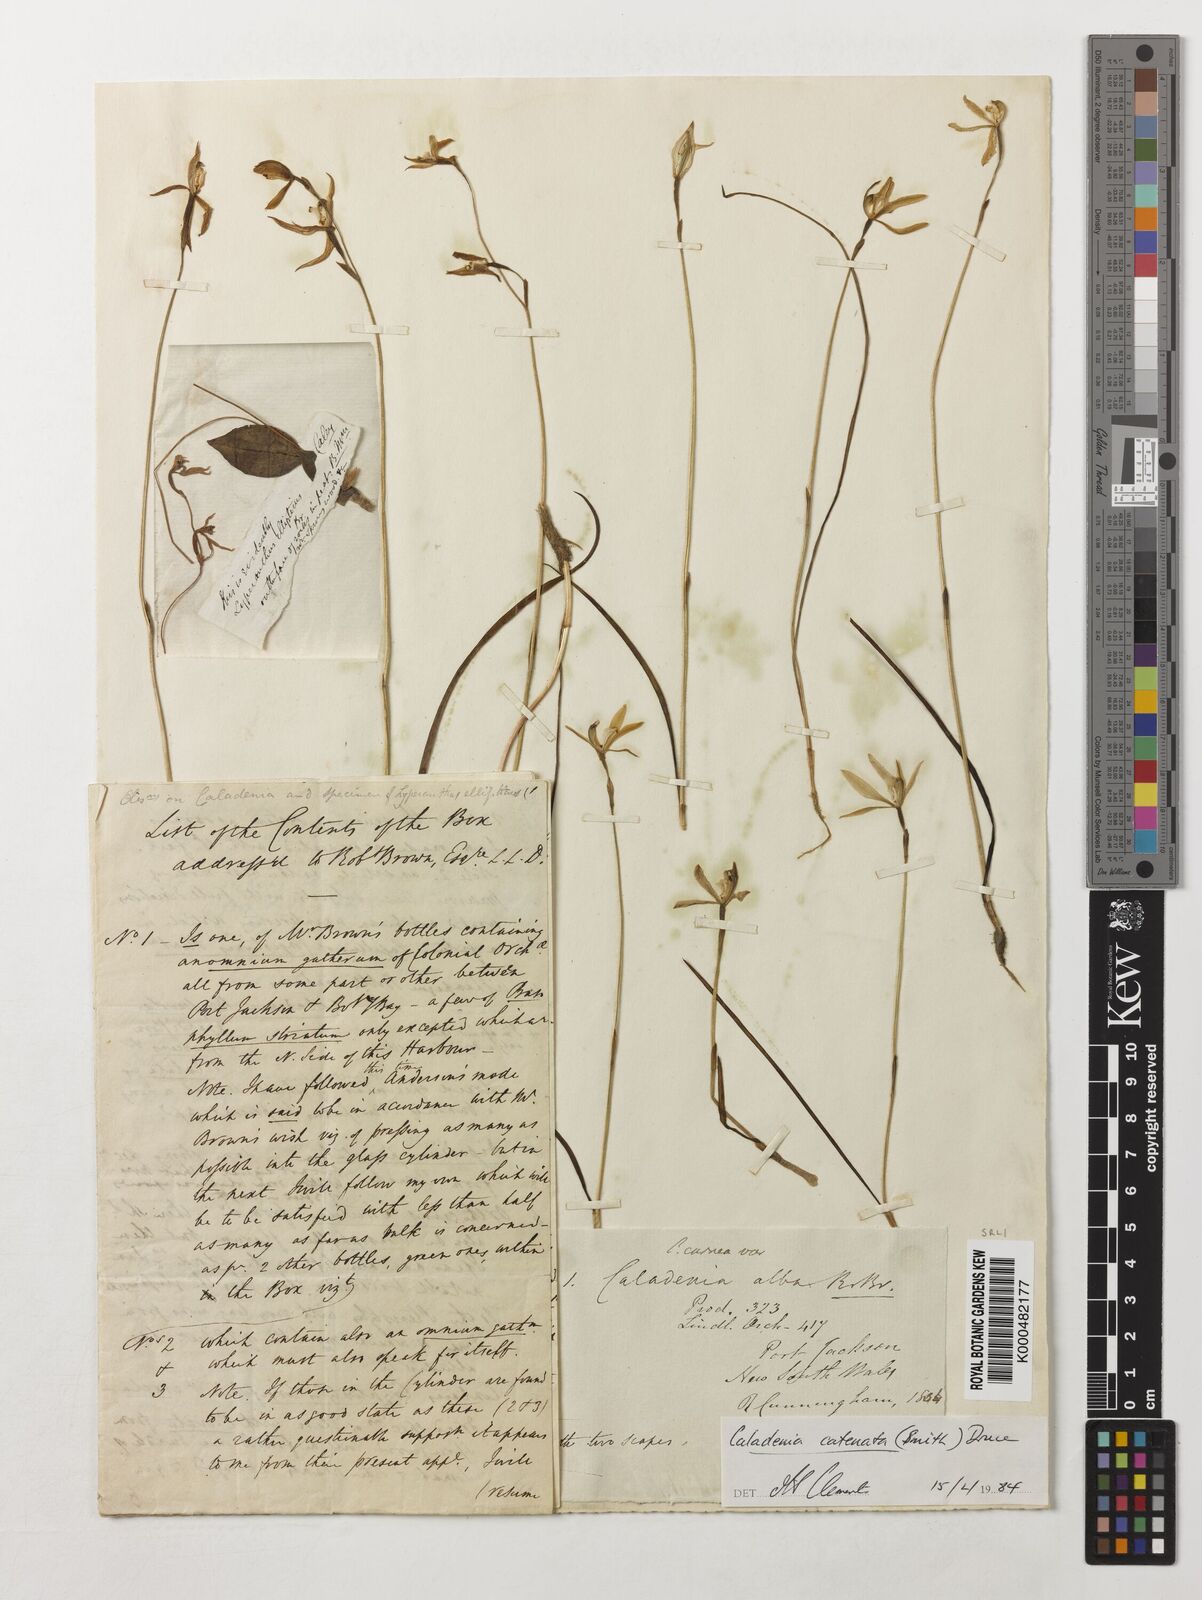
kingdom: Plantae
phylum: Tracheophyta
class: Liliopsida
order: Asparagales
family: Orchidaceae
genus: Caladenia
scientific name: Caladenia
